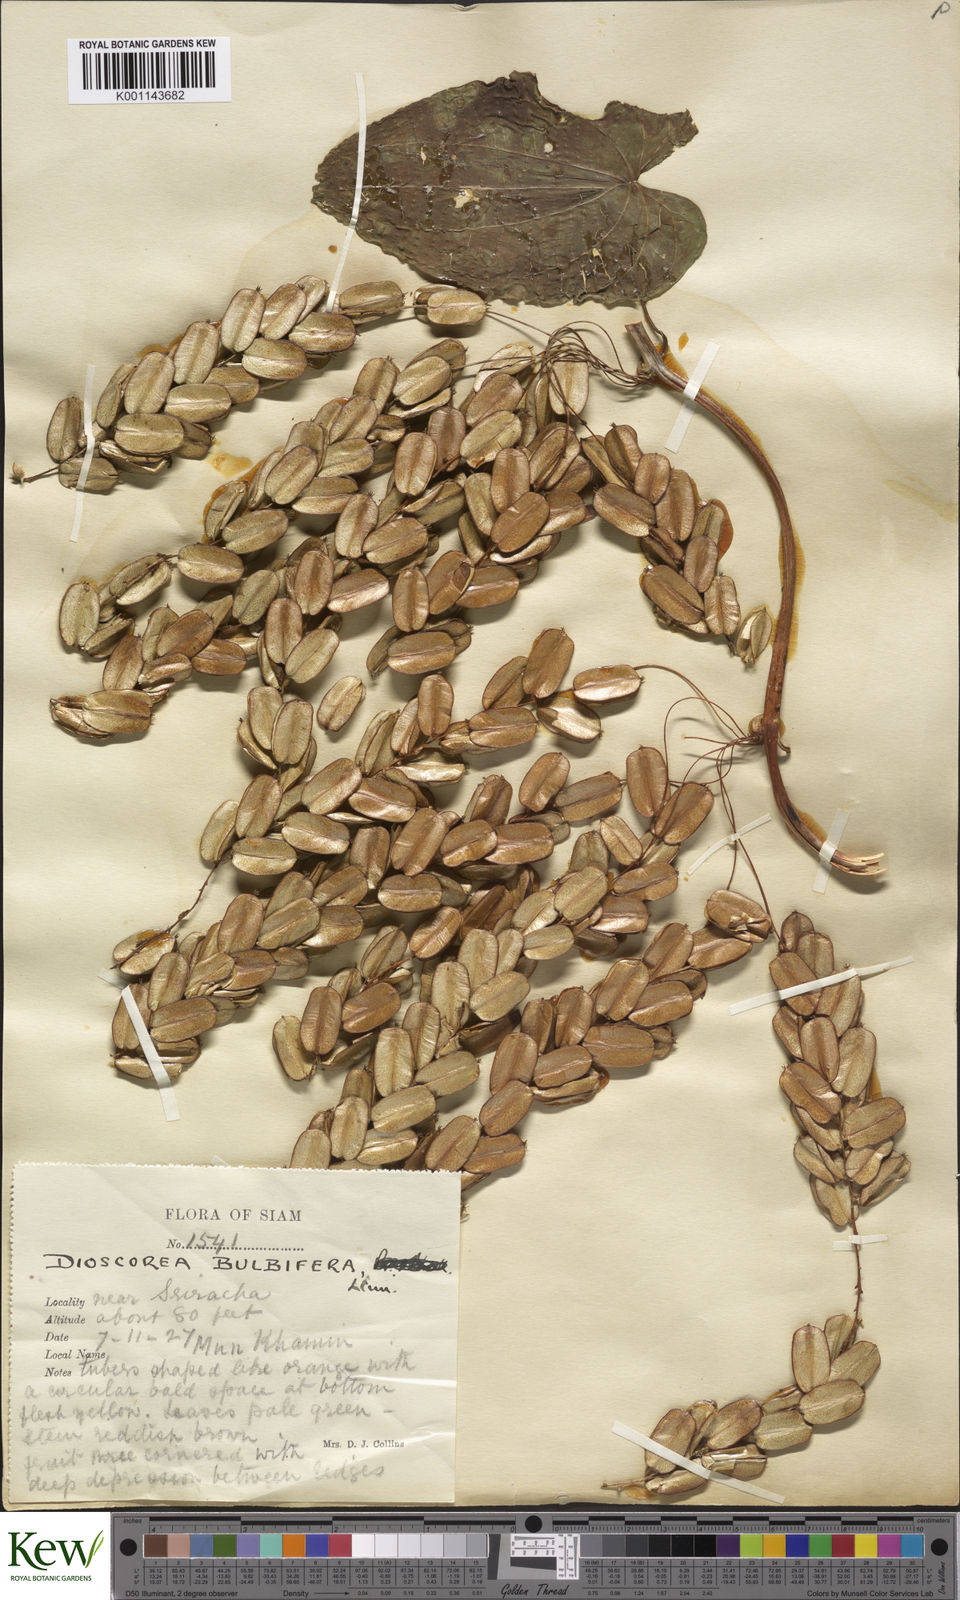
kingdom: Plantae
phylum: Tracheophyta
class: Liliopsida
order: Dioscoreales
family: Dioscoreaceae
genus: Dioscorea
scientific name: Dioscorea bulbifera
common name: Air yam
